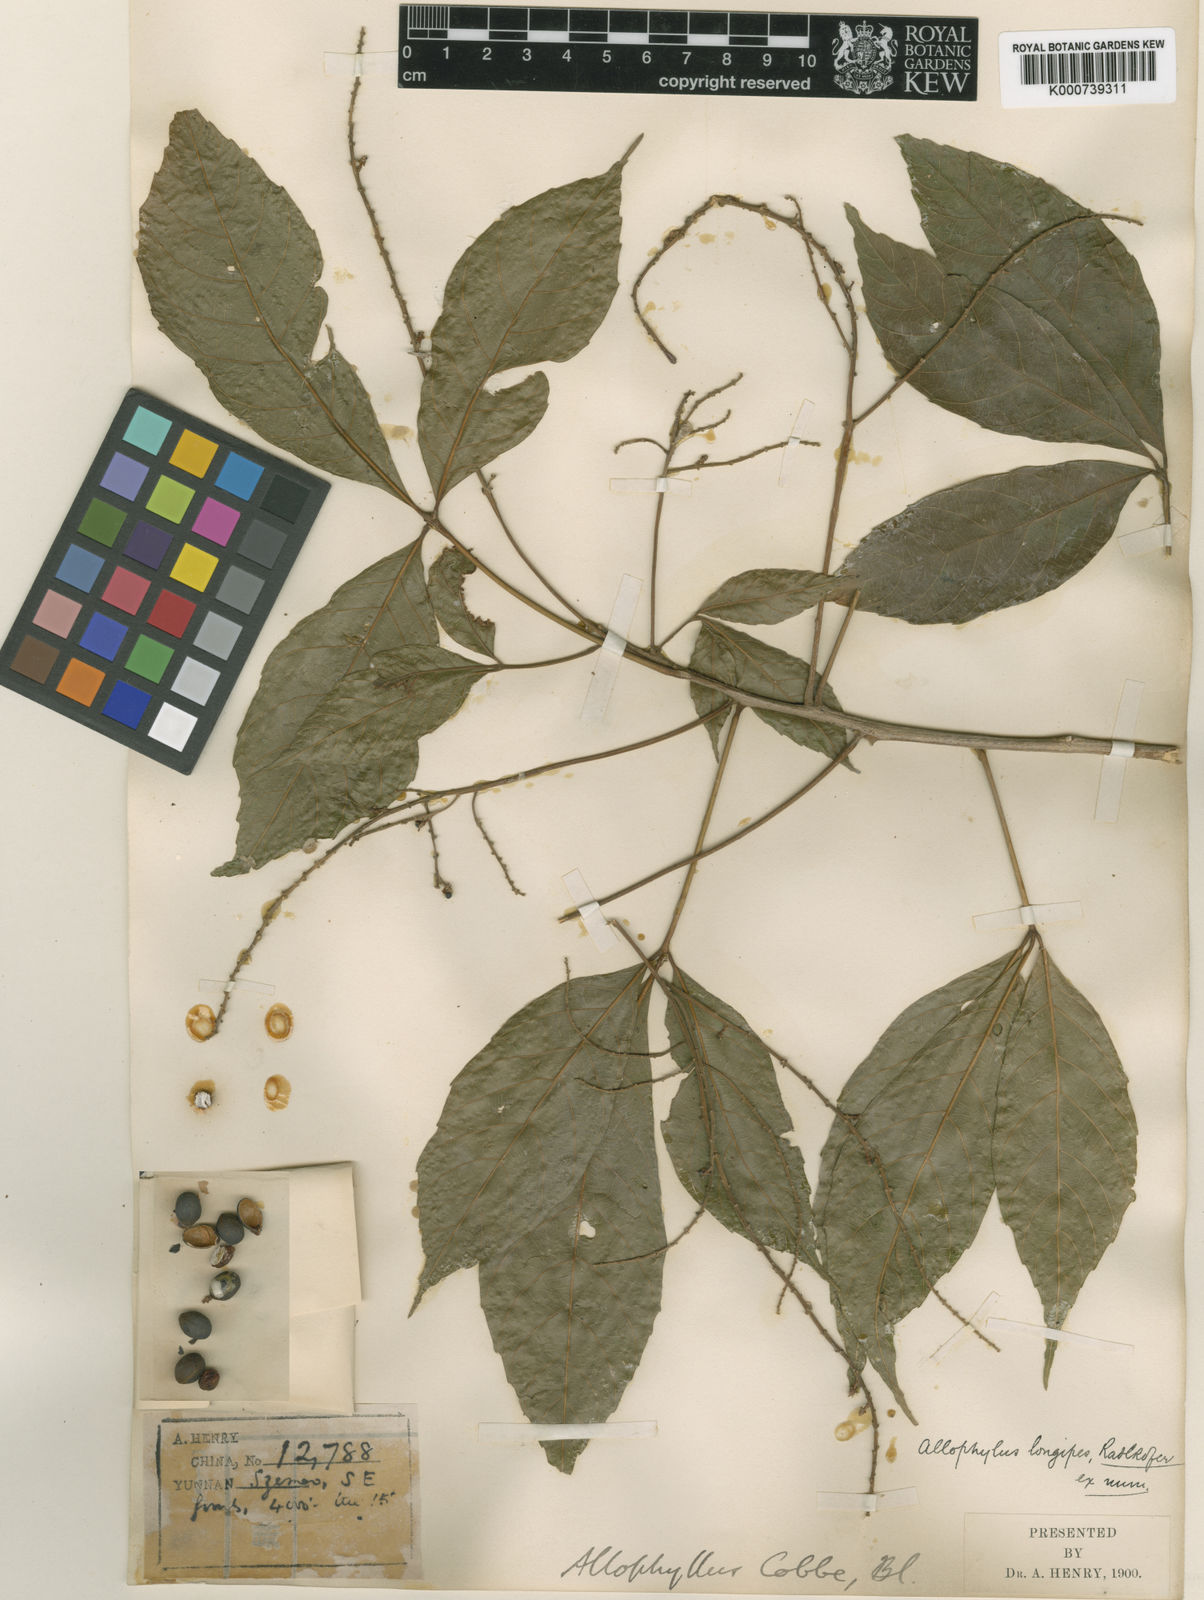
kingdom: Plantae
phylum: Tracheophyta
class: Magnoliopsida
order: Sapindales
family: Sapindaceae
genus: Allophylus
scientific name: Allophylus longipes
